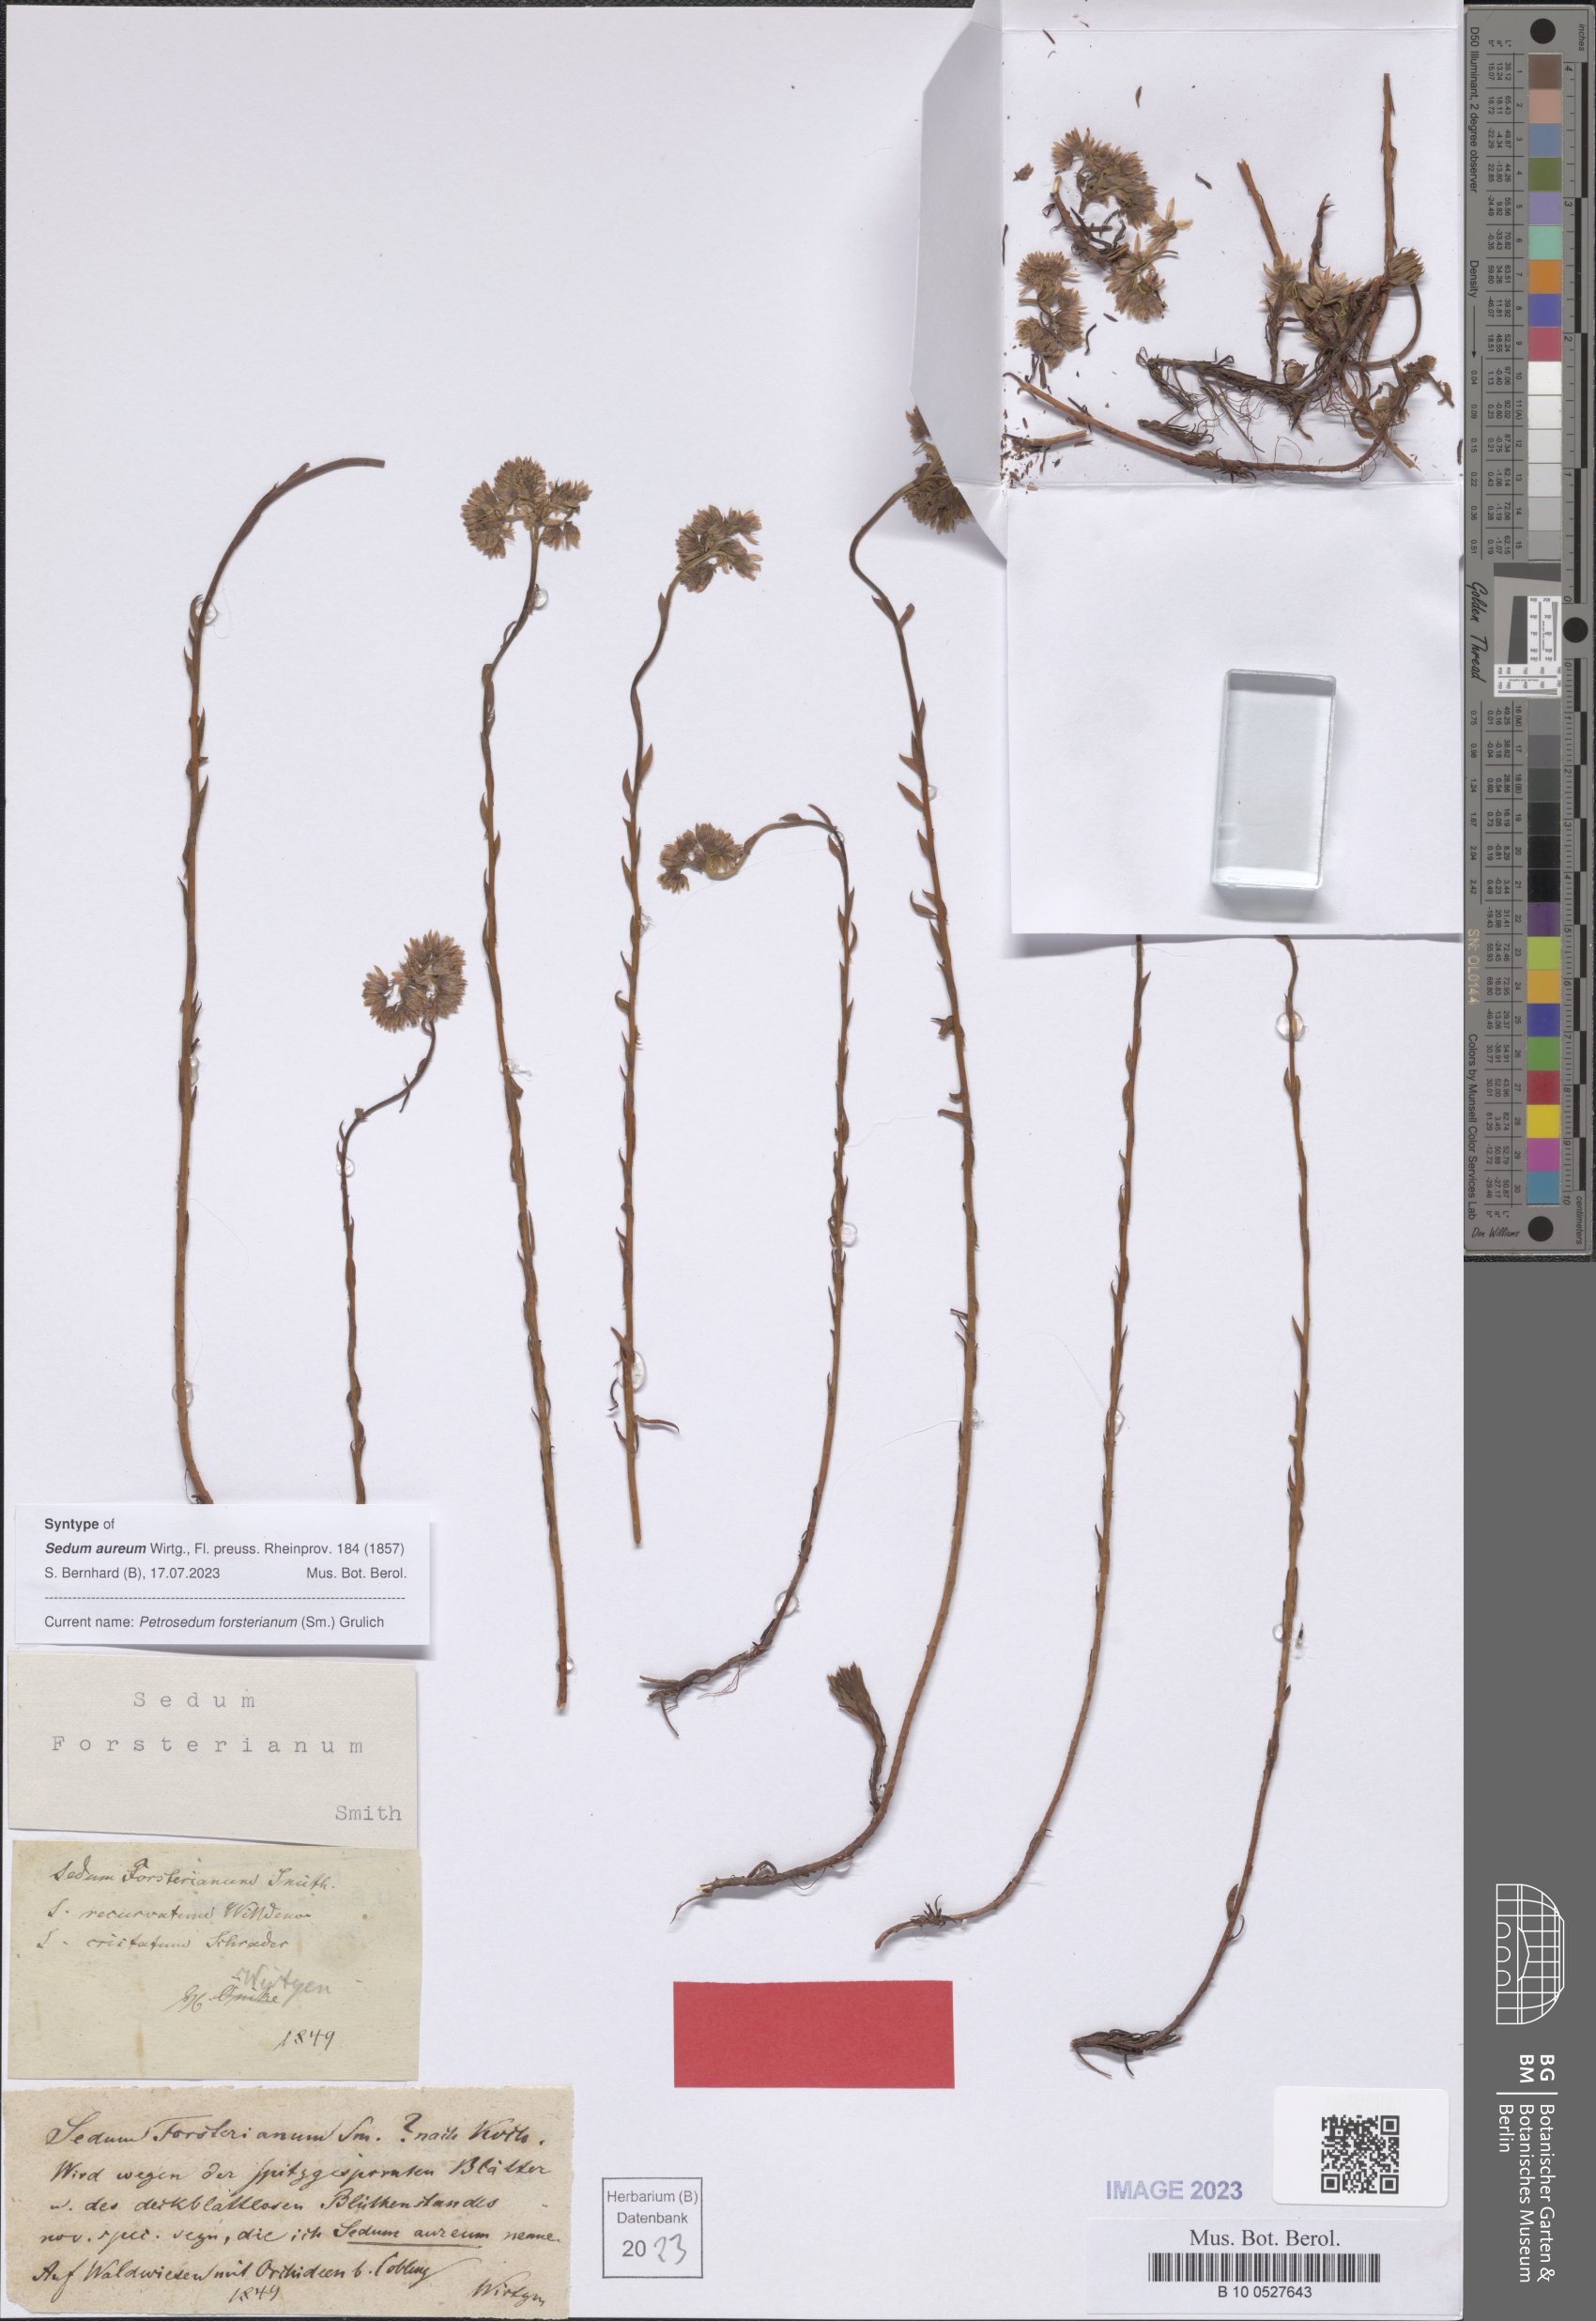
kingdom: Plantae
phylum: Tracheophyta
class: Magnoliopsida
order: Saxifragales
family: Crassulaceae
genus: Petrosedum
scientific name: Petrosedum forsterianum
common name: Forster's stonecrop
